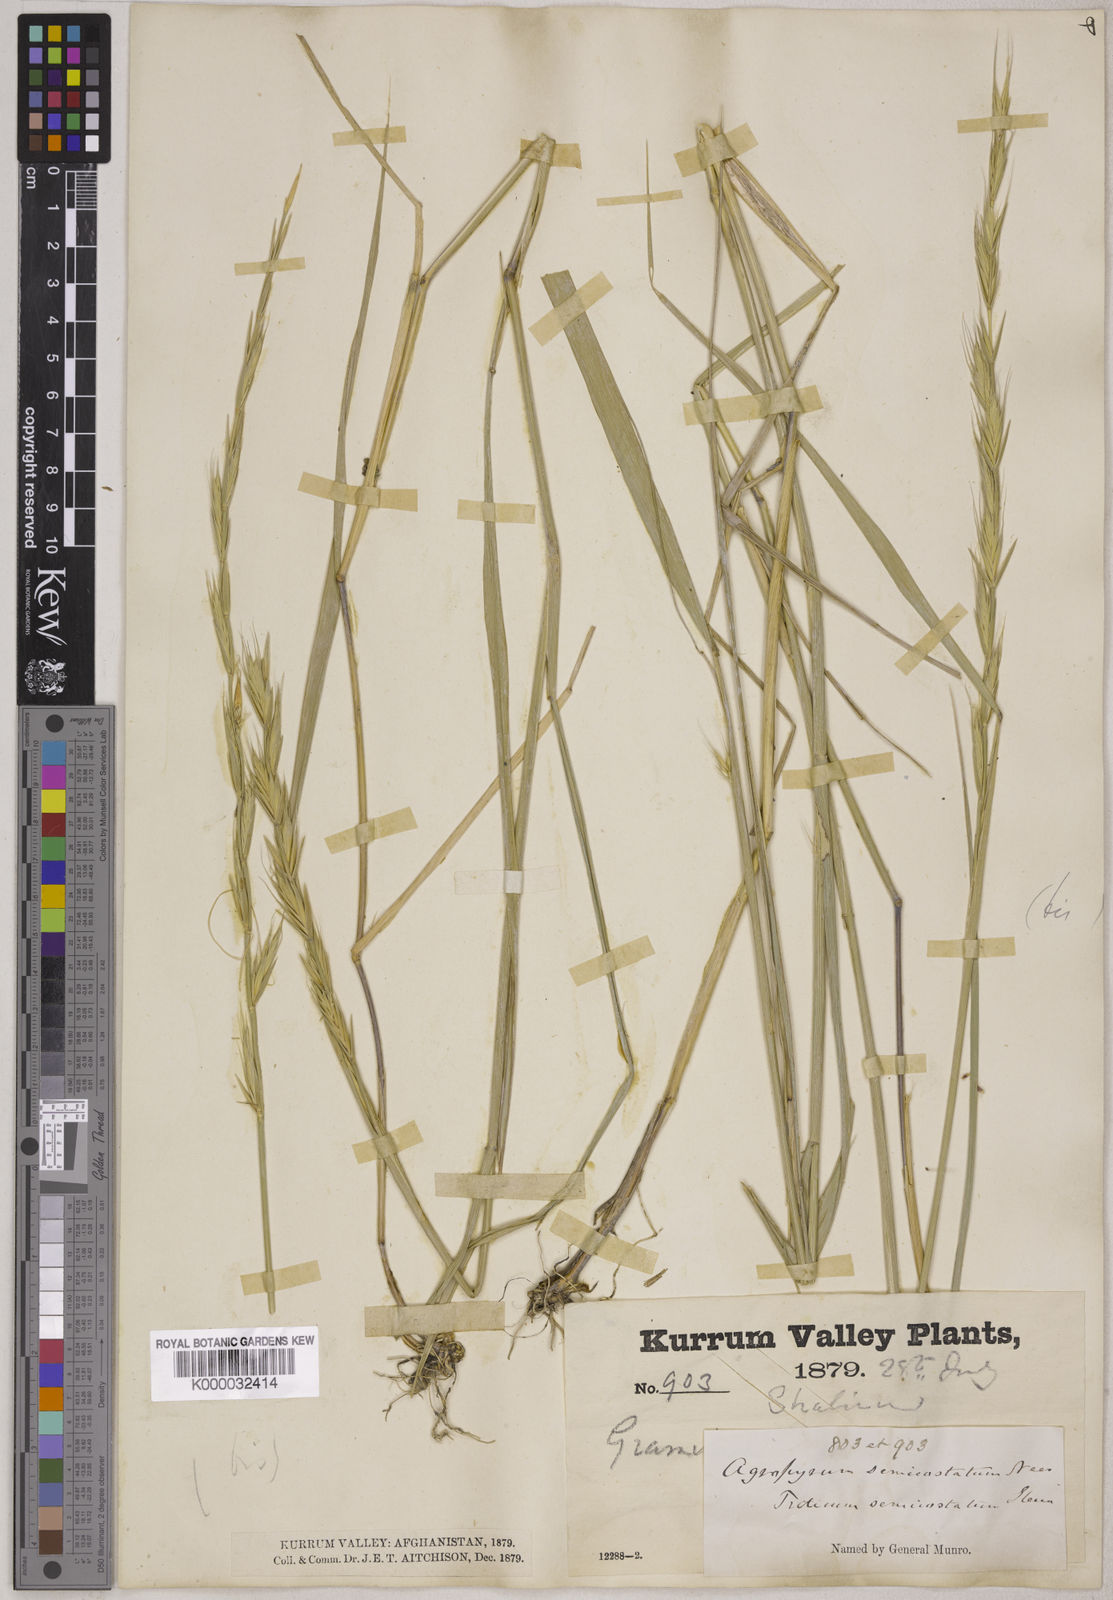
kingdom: Plantae
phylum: Tracheophyta
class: Liliopsida
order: Poales
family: Poaceae
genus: Elymus
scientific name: Elymus curvatiformis
